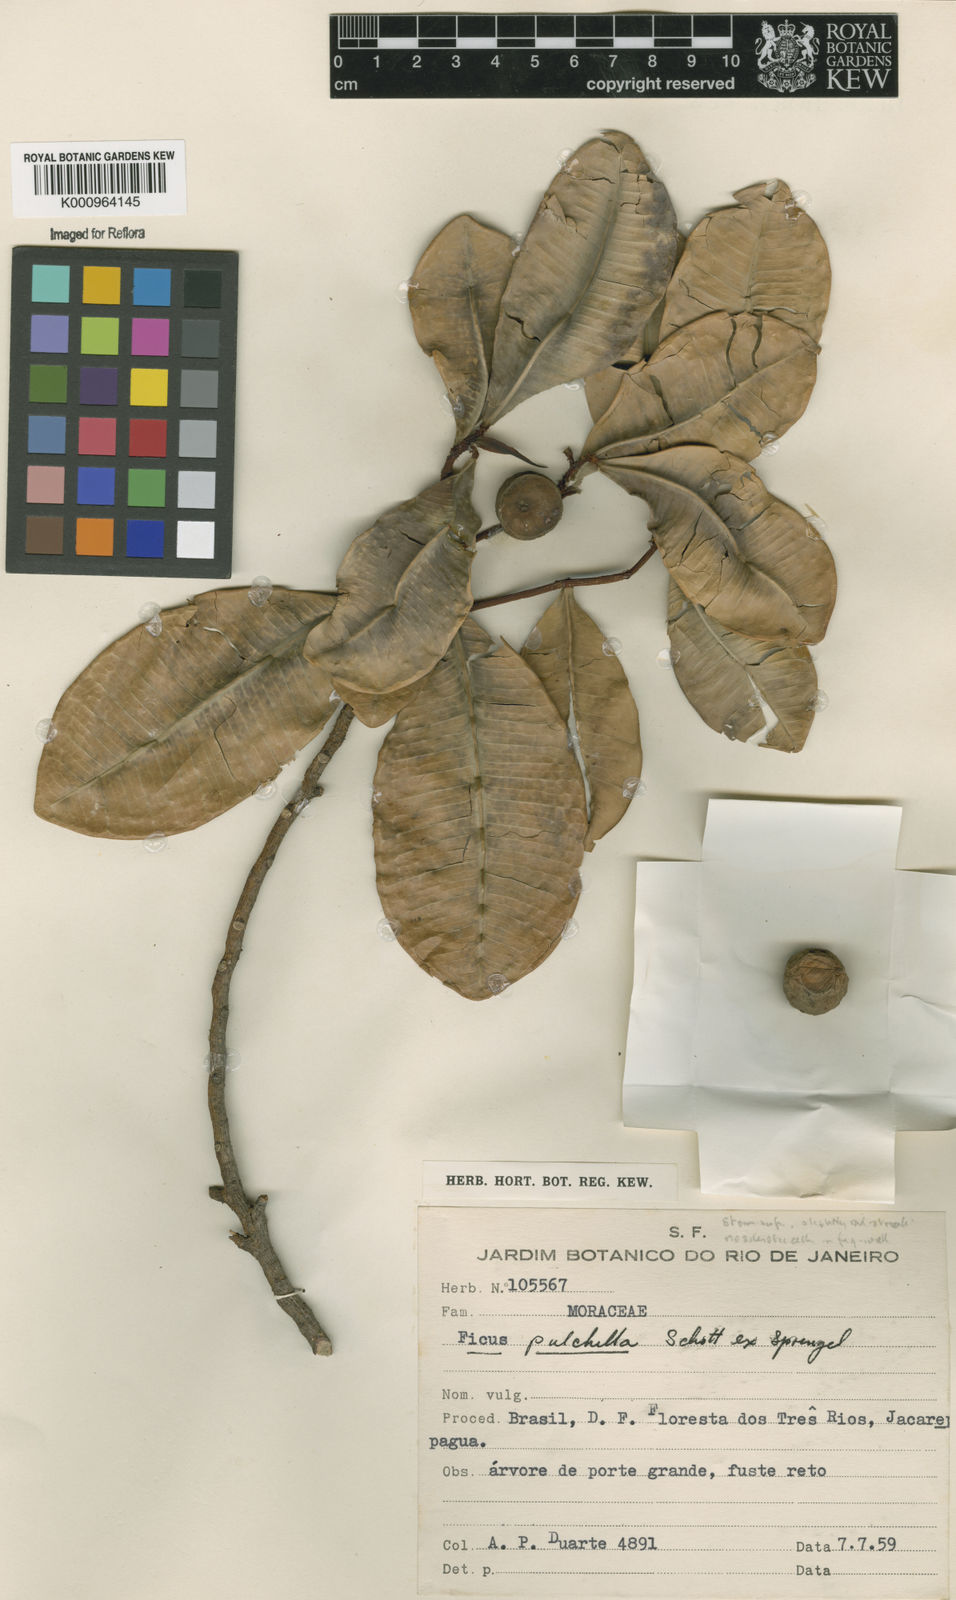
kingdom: Plantae
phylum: Tracheophyta
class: Magnoliopsida
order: Rosales
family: Moraceae
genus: Ficus
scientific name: Ficus pulchella
